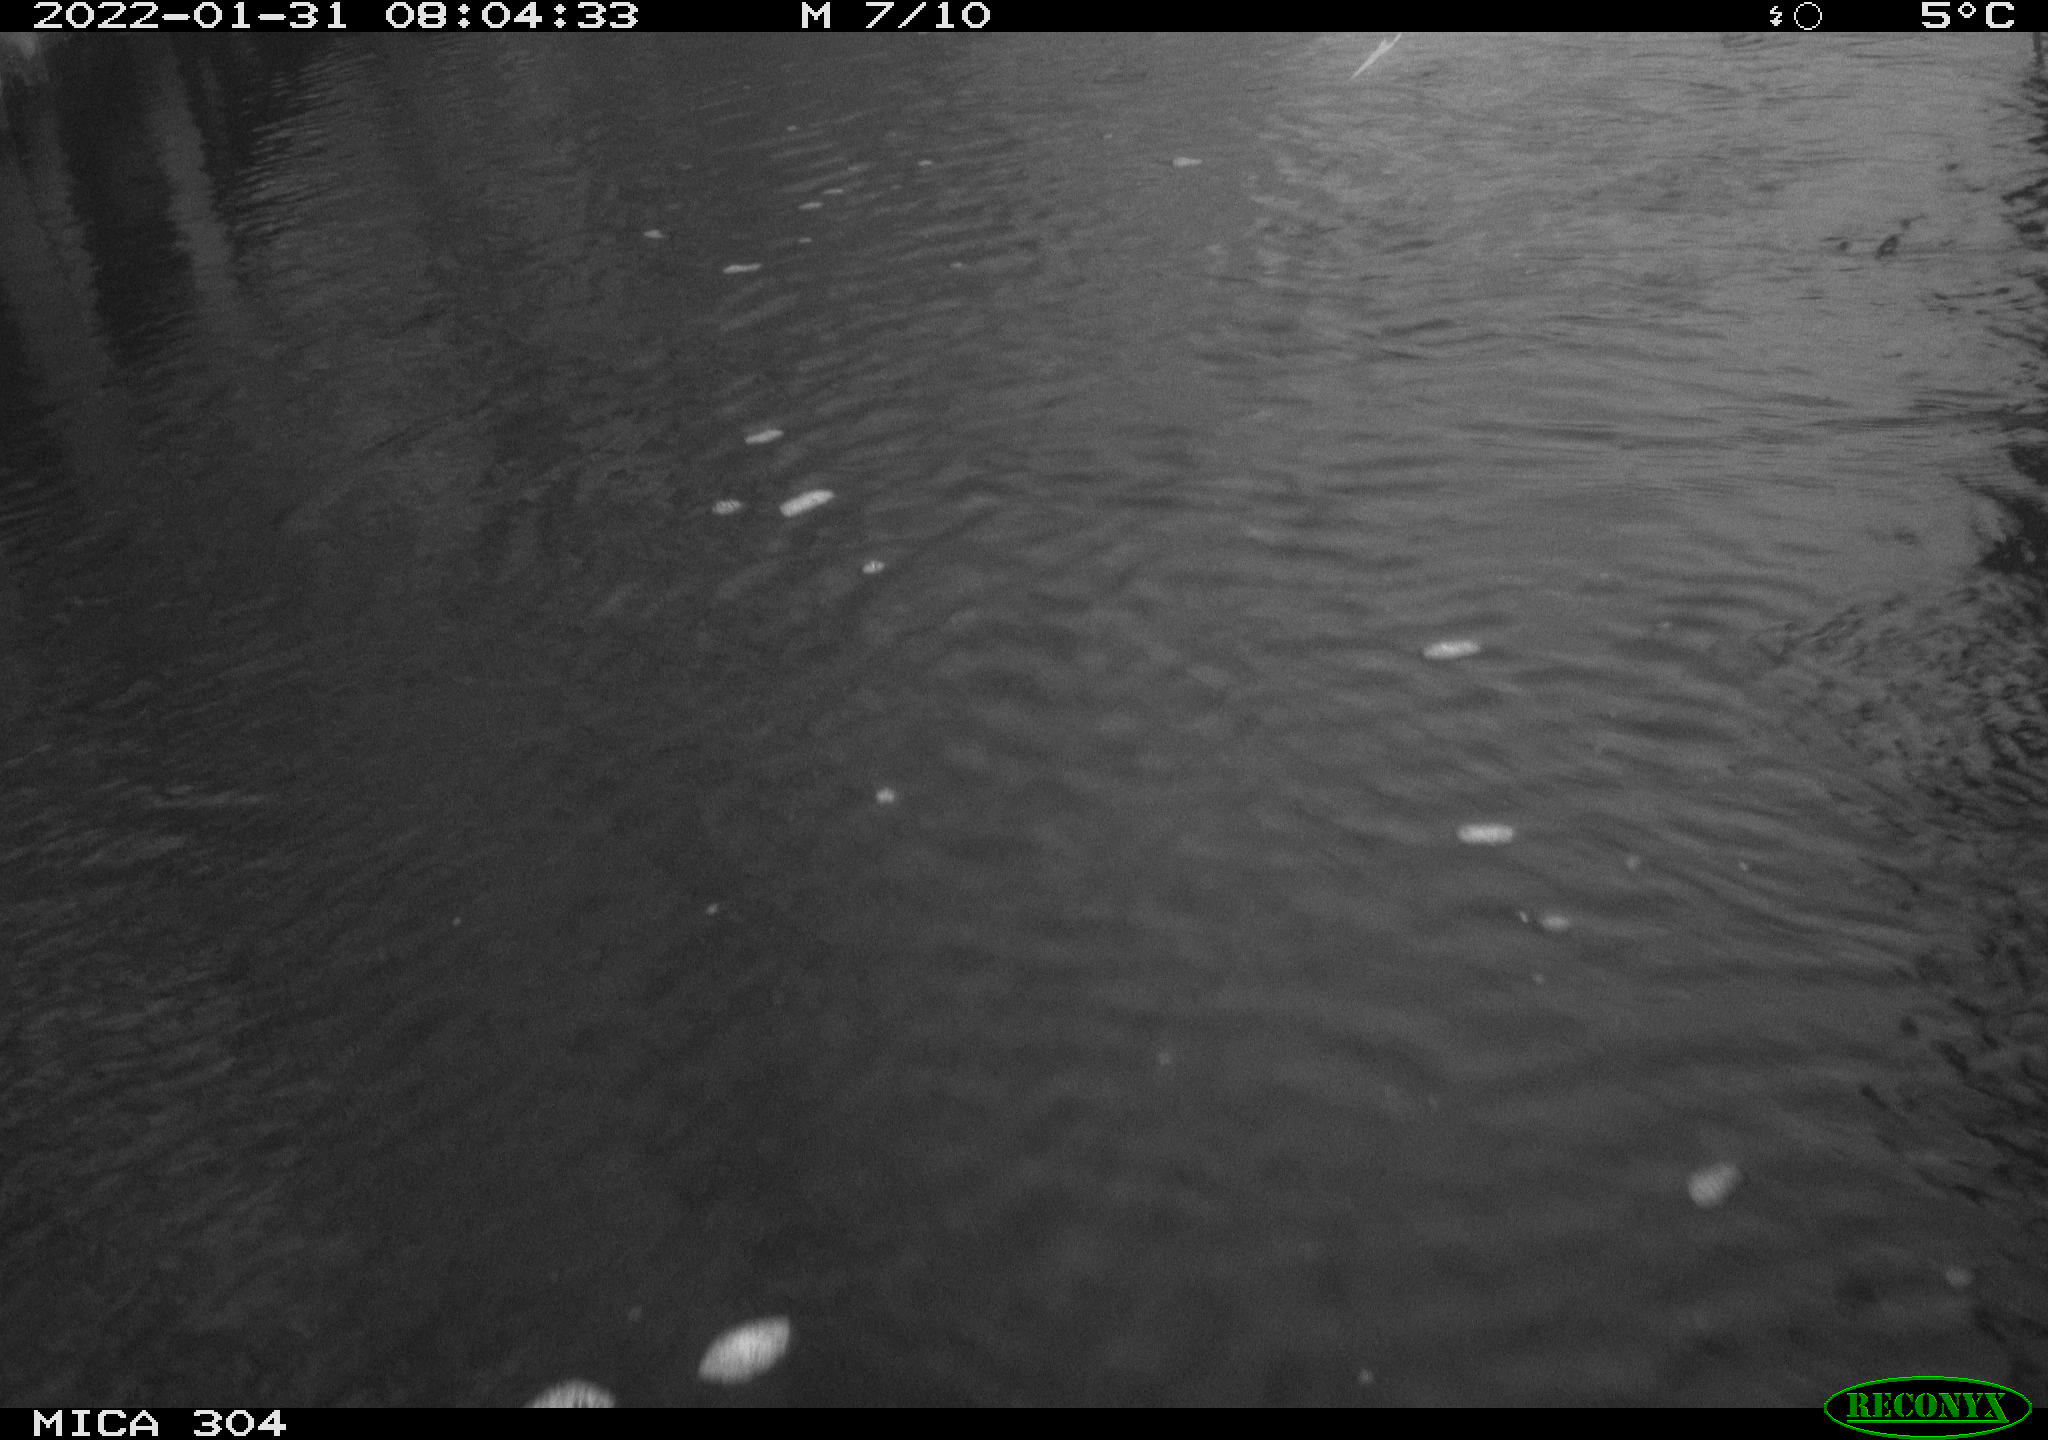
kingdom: Animalia
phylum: Chordata
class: Aves
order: Anseriformes
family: Anatidae
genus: Anas
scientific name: Anas
